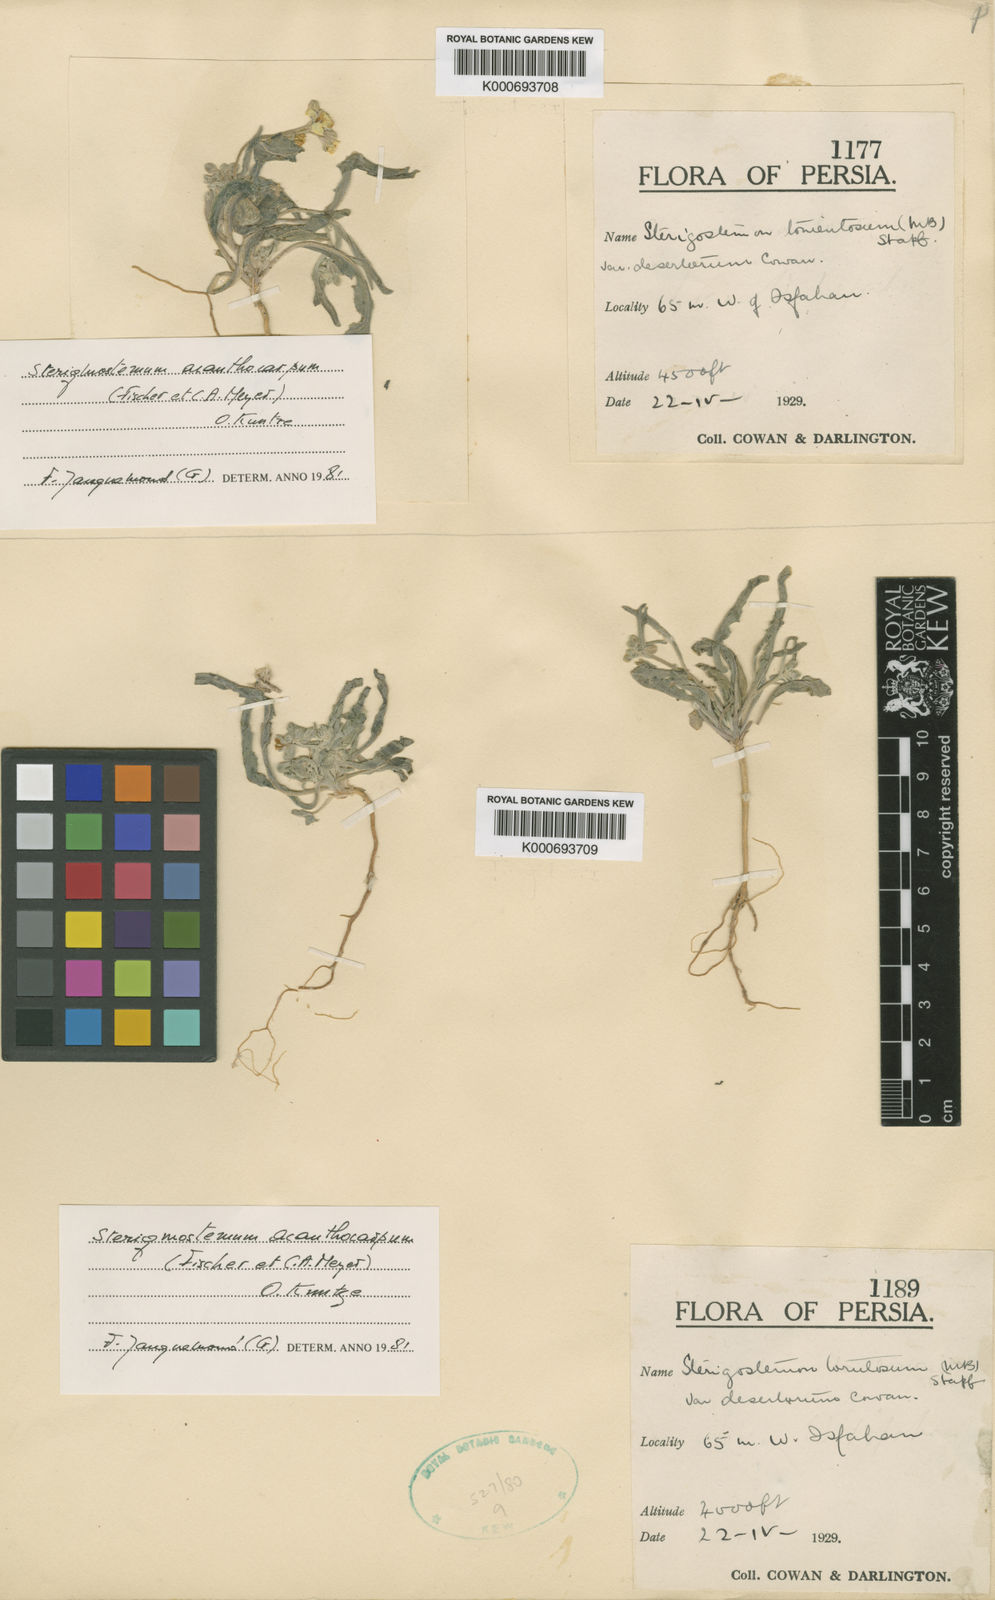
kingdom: Plantae
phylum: Tracheophyta
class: Magnoliopsida
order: Brassicales
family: Brassicaceae
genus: Sterigmostemum
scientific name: Sterigmostemum
